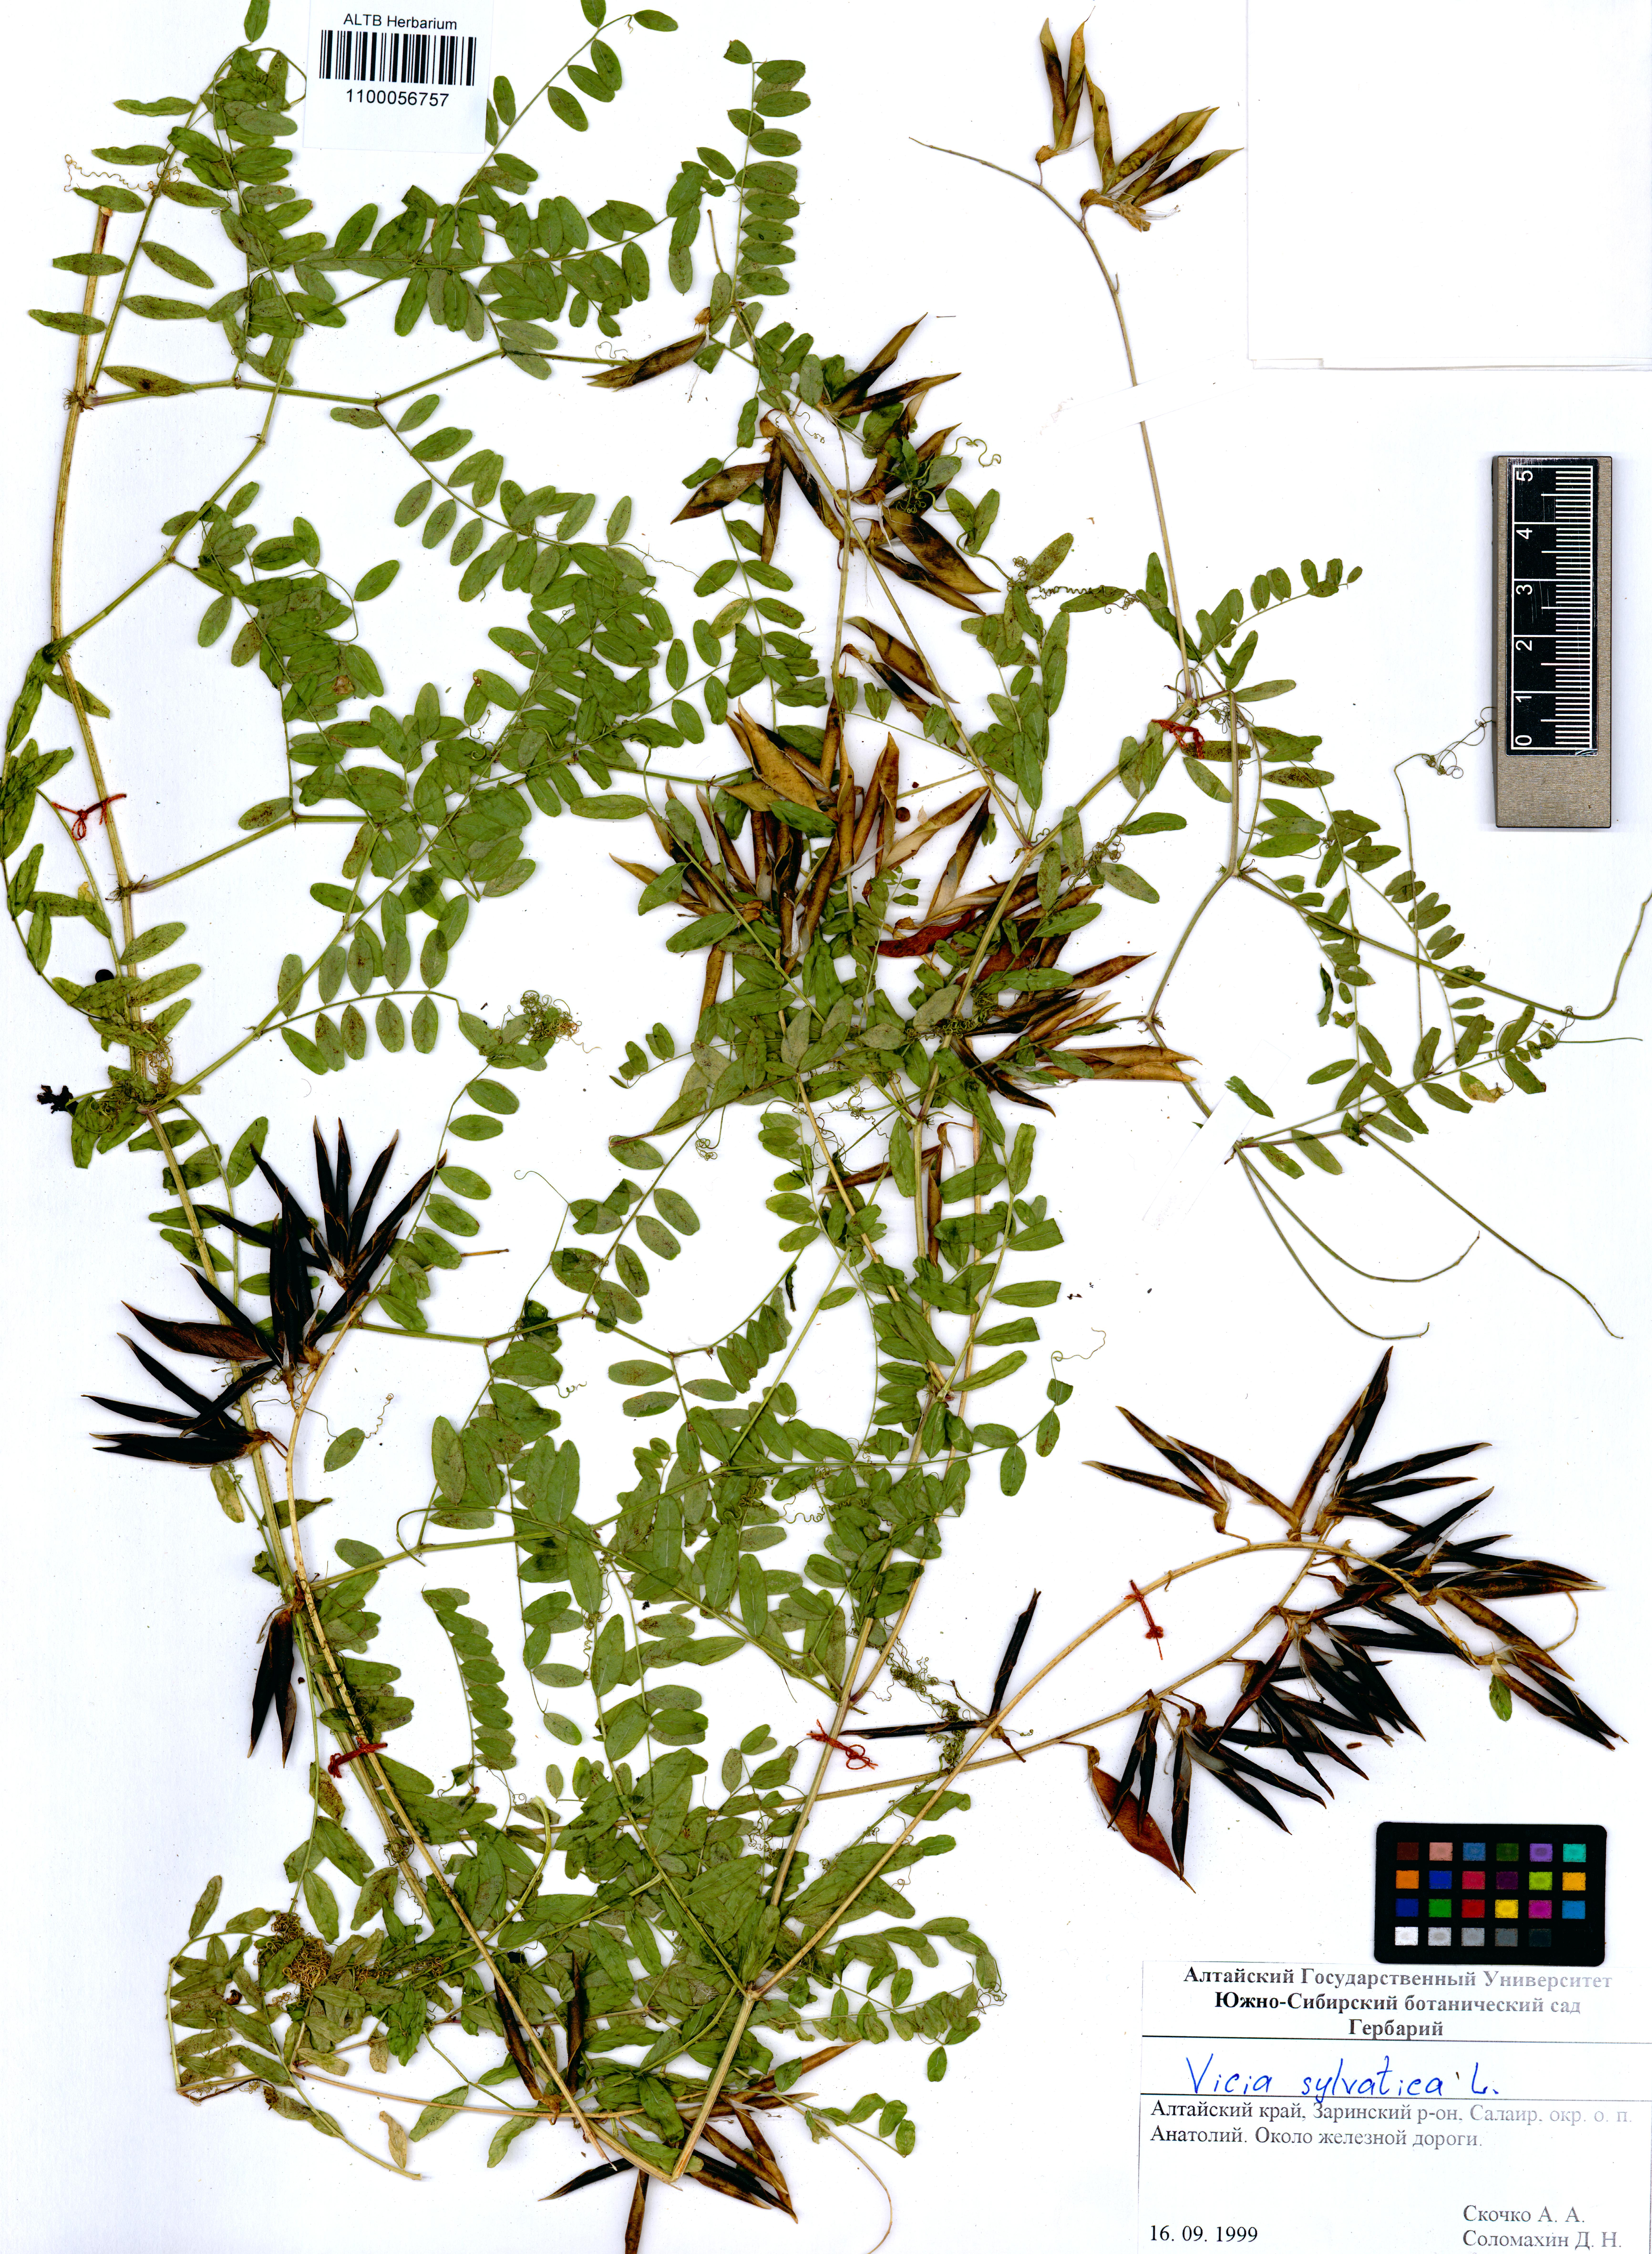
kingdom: Plantae
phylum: Tracheophyta
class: Magnoliopsida
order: Fabales
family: Fabaceae
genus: Vicia
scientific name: Vicia sylvatica
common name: Wood vetch
